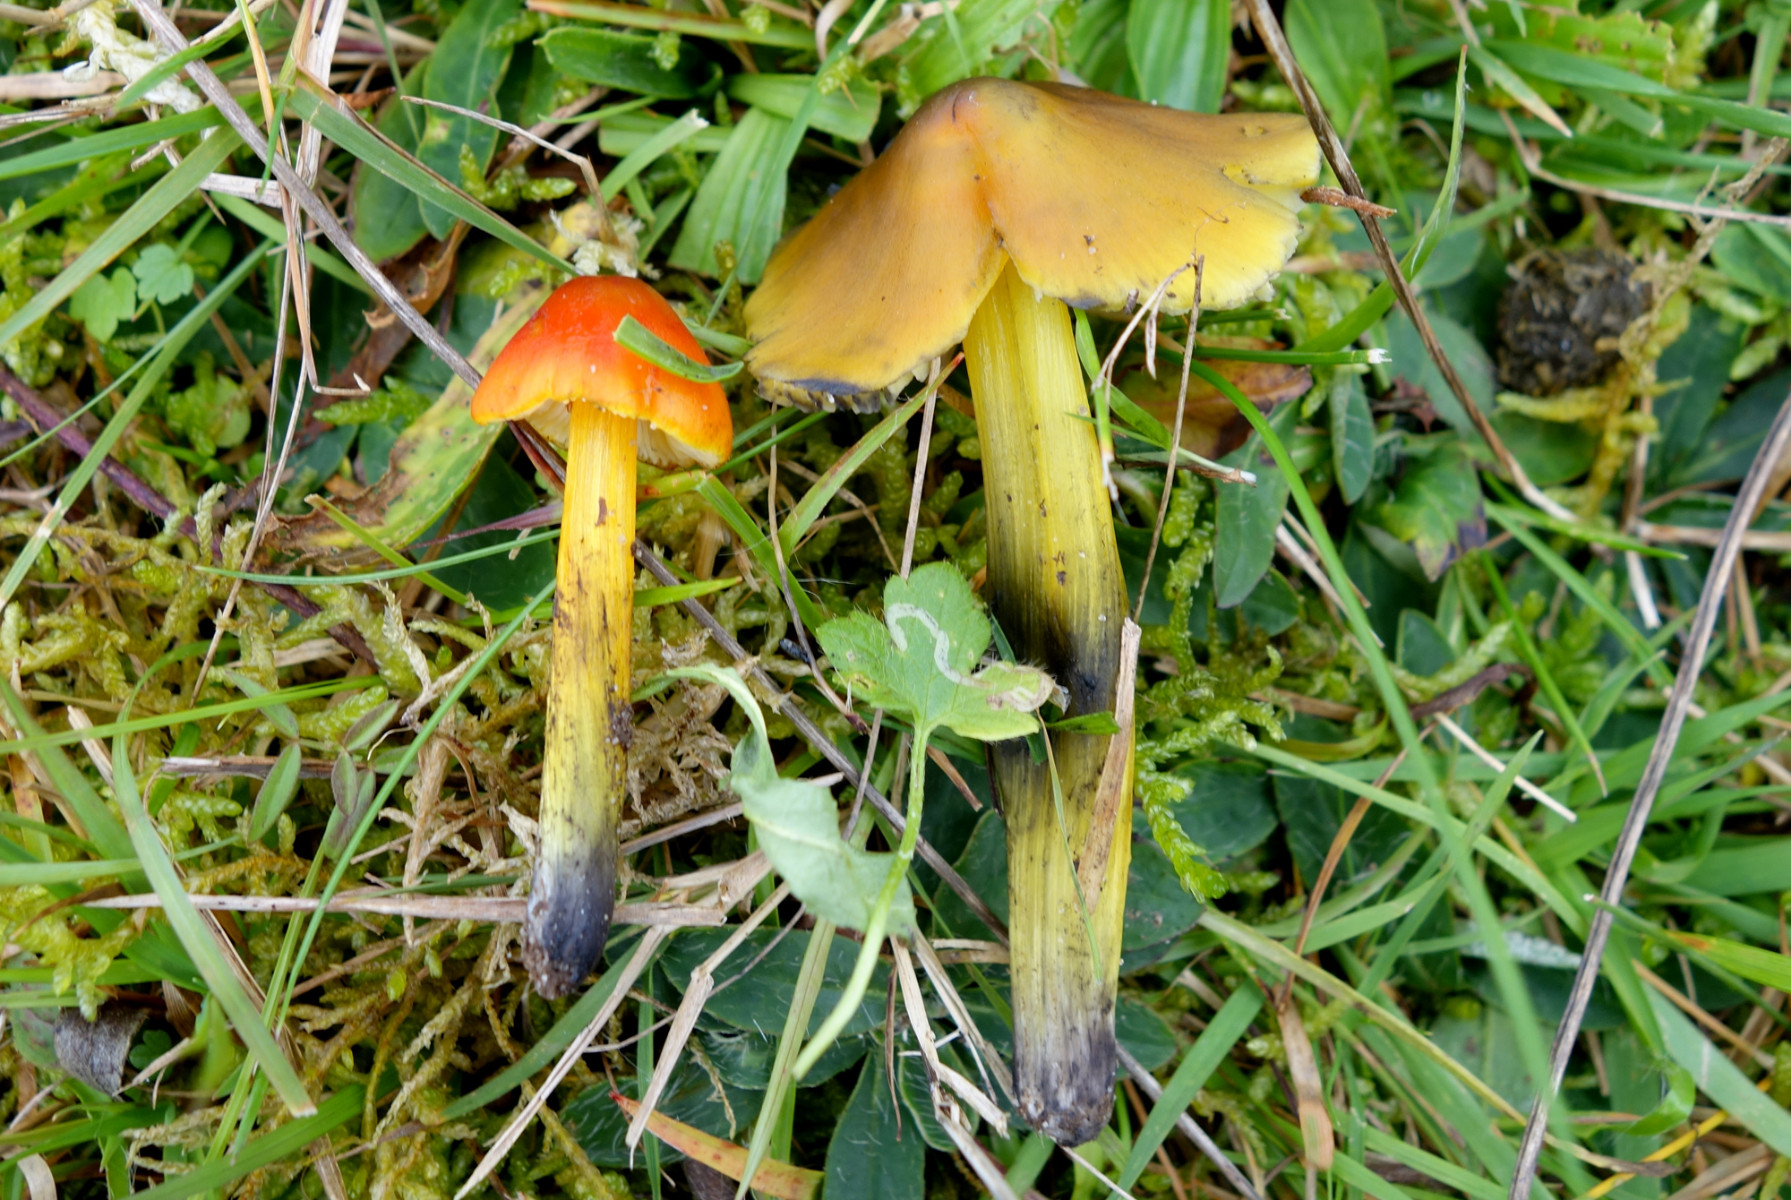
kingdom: Fungi
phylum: Basidiomycota
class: Agaricomycetes
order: Agaricales
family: Hygrophoraceae
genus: Hygrocybe
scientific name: Hygrocybe conica
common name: kegle-vokshat
